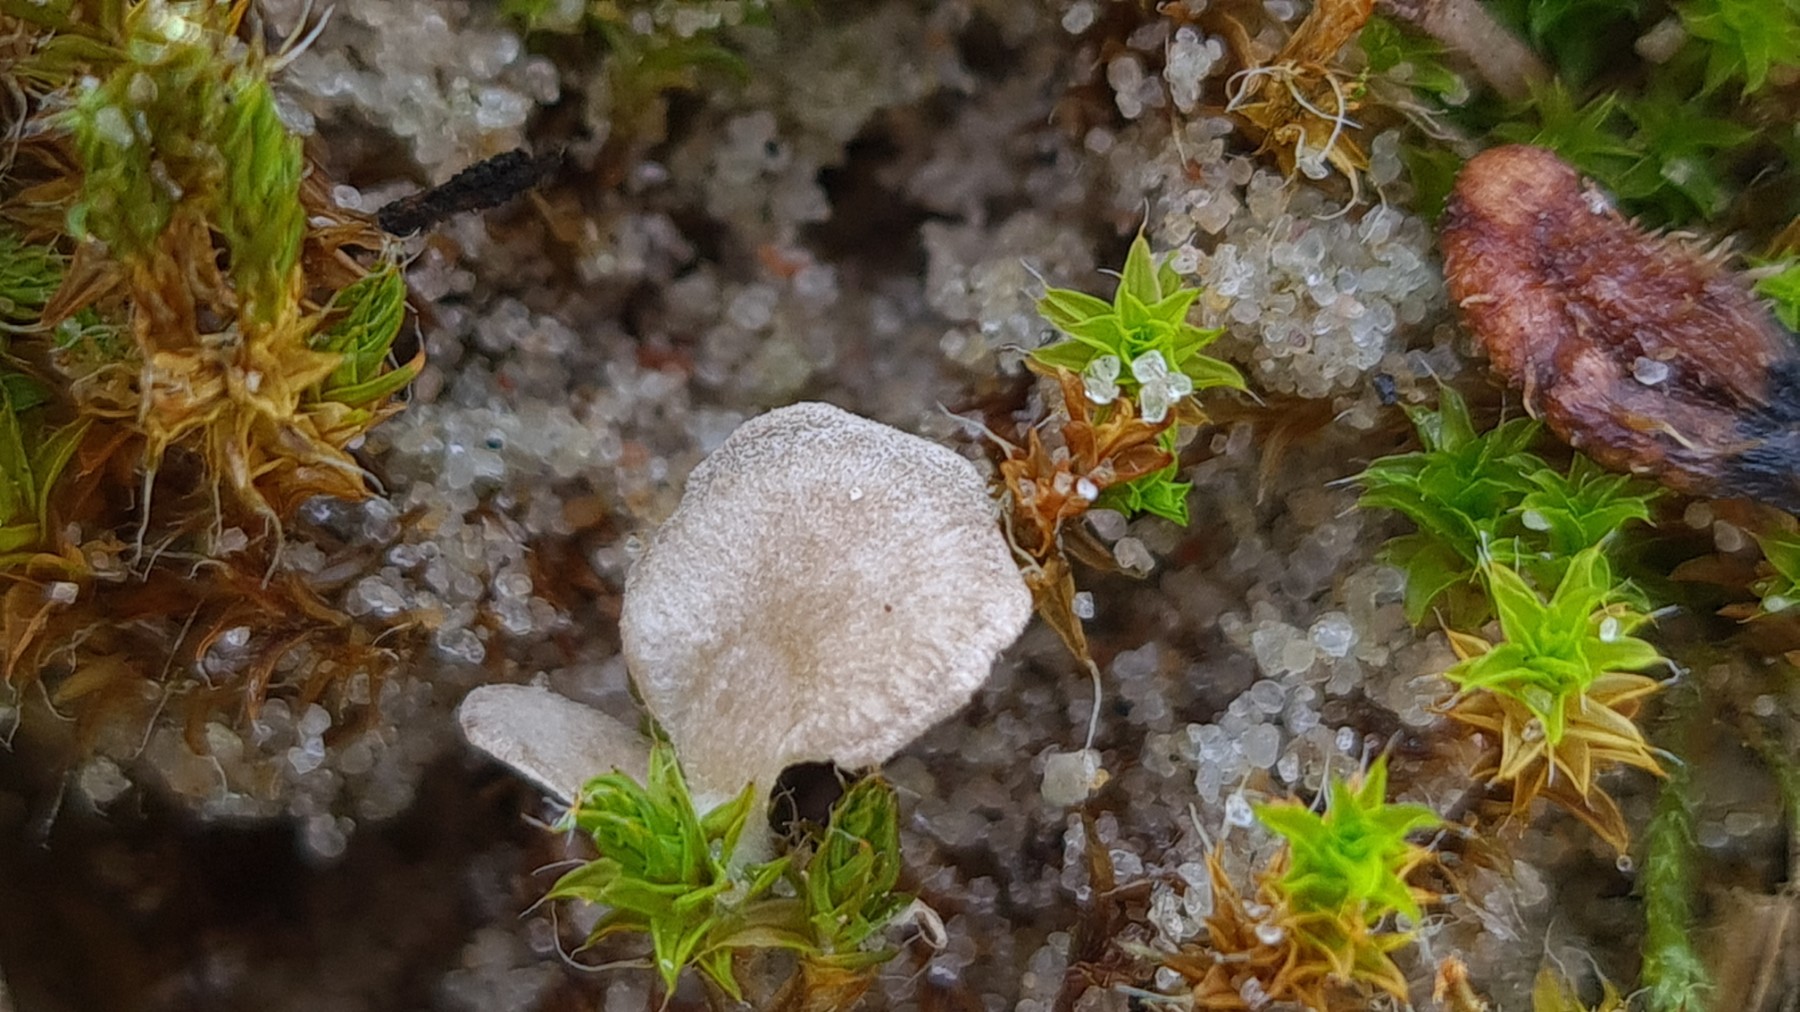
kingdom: Fungi
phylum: Basidiomycota
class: Agaricomycetes
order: Agaricales
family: Hygrophoraceae
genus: Arrhenia
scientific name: Arrhenia spathulata
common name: skæv fontænehat
